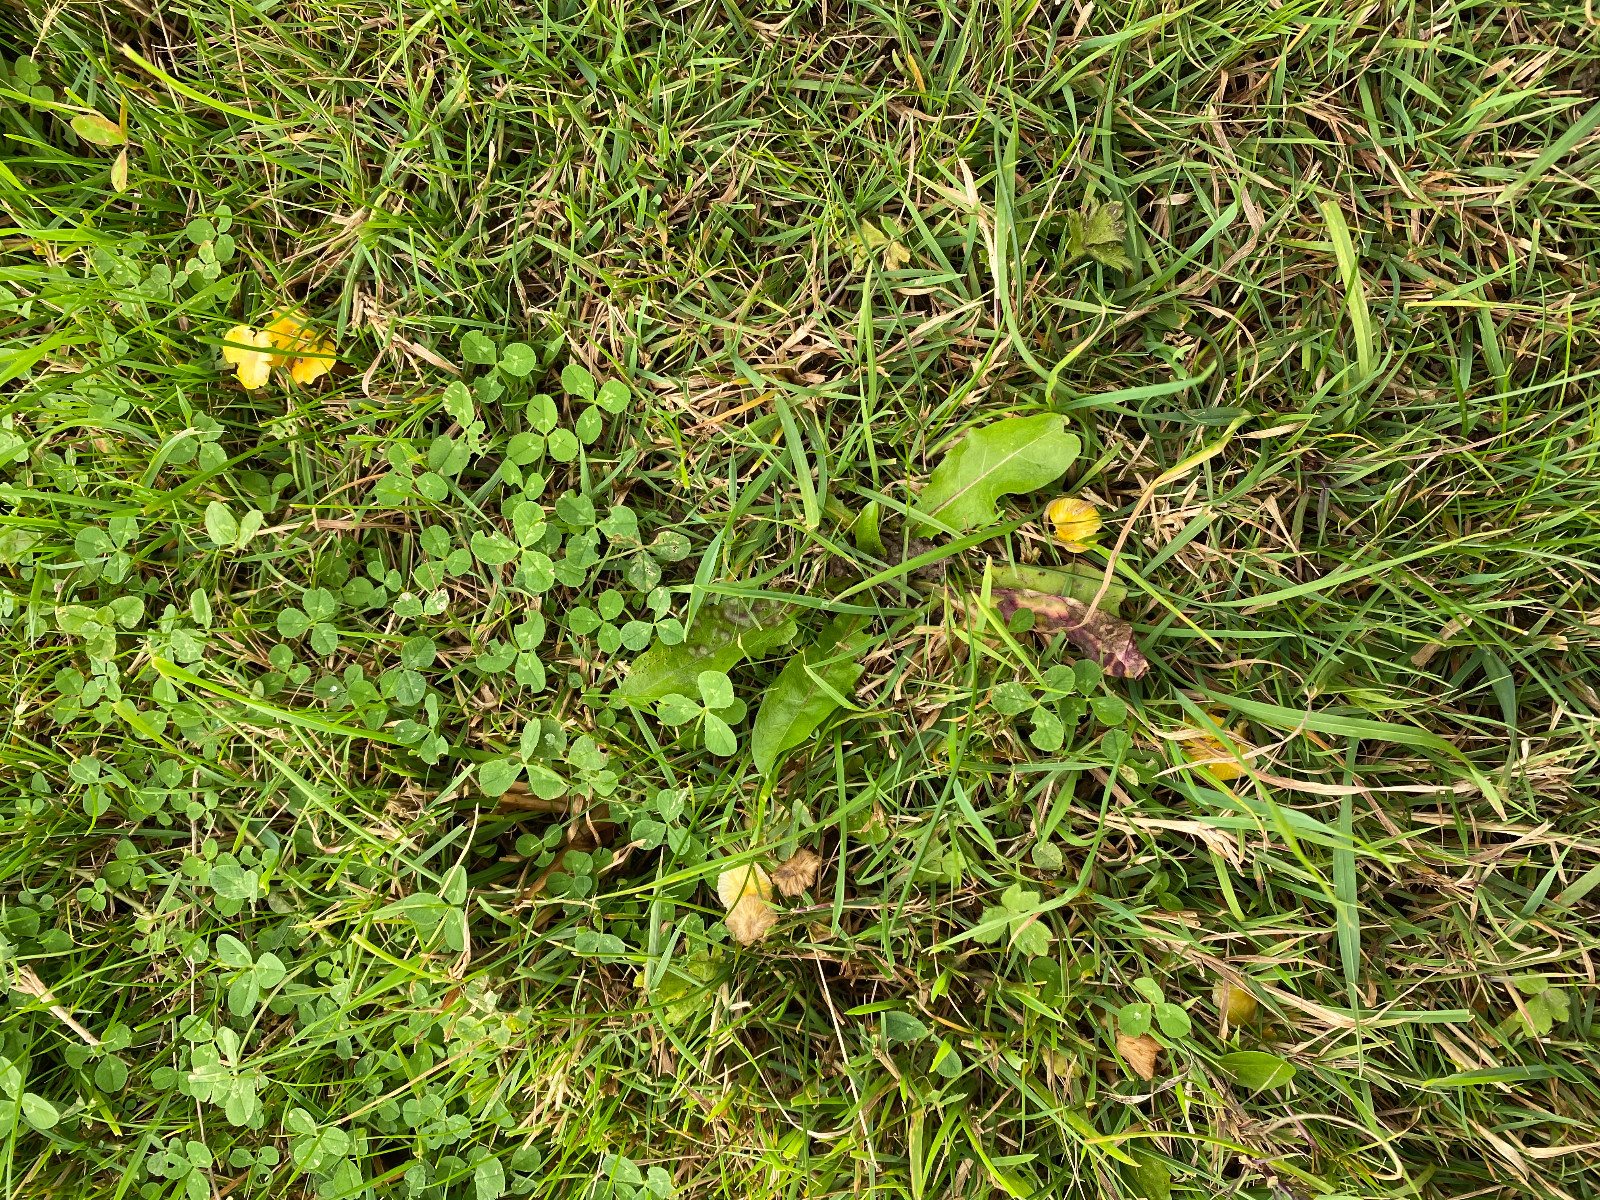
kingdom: Fungi
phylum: Basidiomycota
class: Agaricomycetes
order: Agaricales
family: Hygrophoraceae
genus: Hygrocybe
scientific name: Hygrocybe glutinipes
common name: slimstokket vokshat
